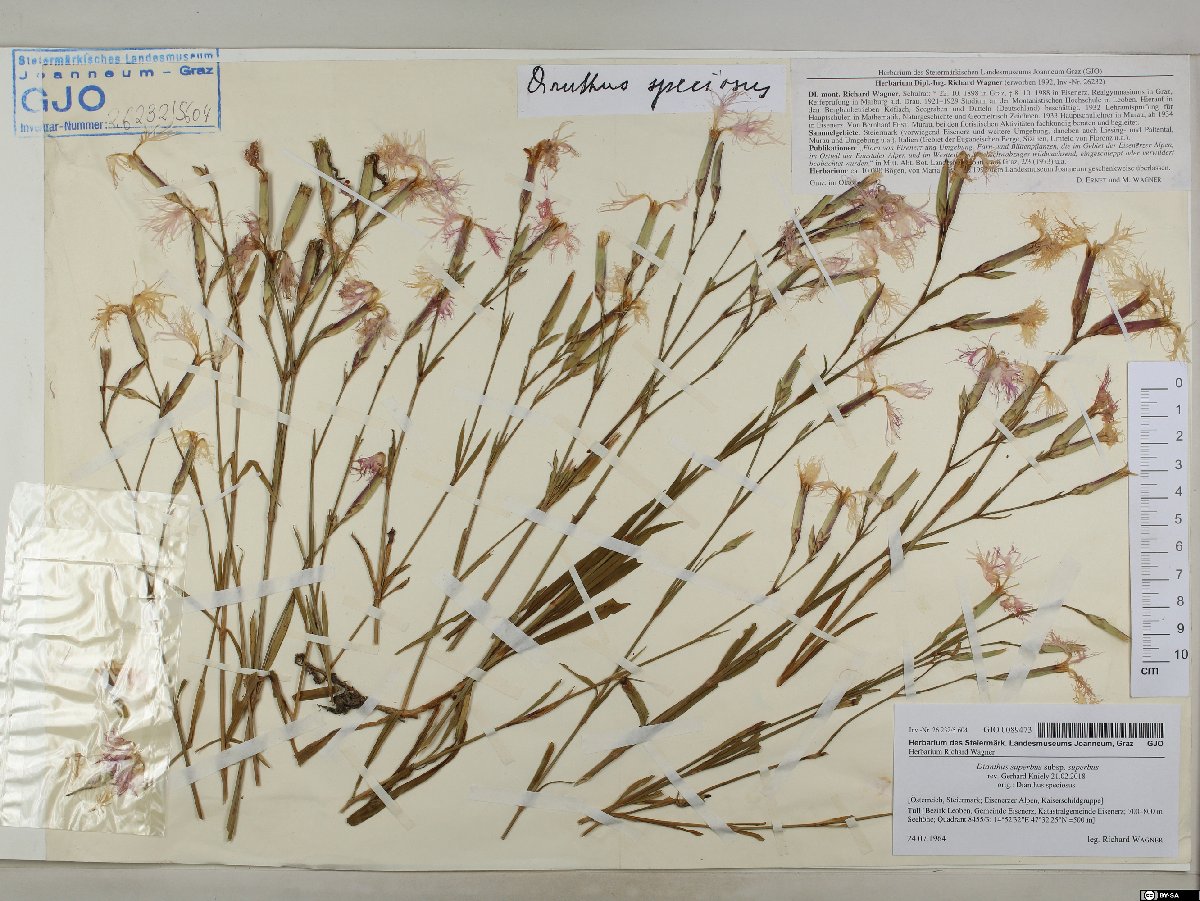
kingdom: Plantae
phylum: Tracheophyta
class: Magnoliopsida
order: Caryophyllales
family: Caryophyllaceae
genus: Dianthus
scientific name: Dianthus superbus
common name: Fringed pink
